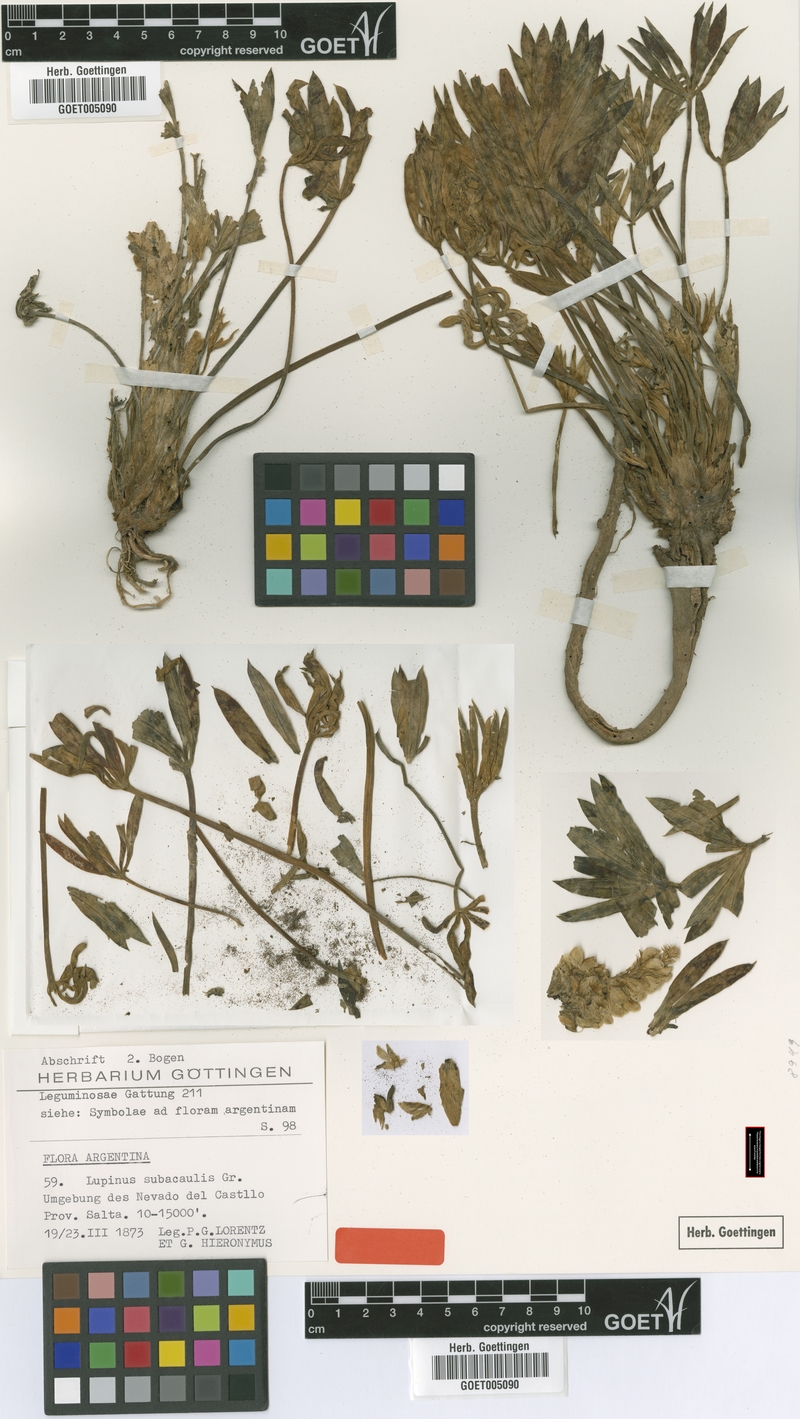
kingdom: Plantae
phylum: Tracheophyta
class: Magnoliopsida
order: Fabales
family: Fabaceae
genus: Lupinus
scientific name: Lupinus subacaulis
